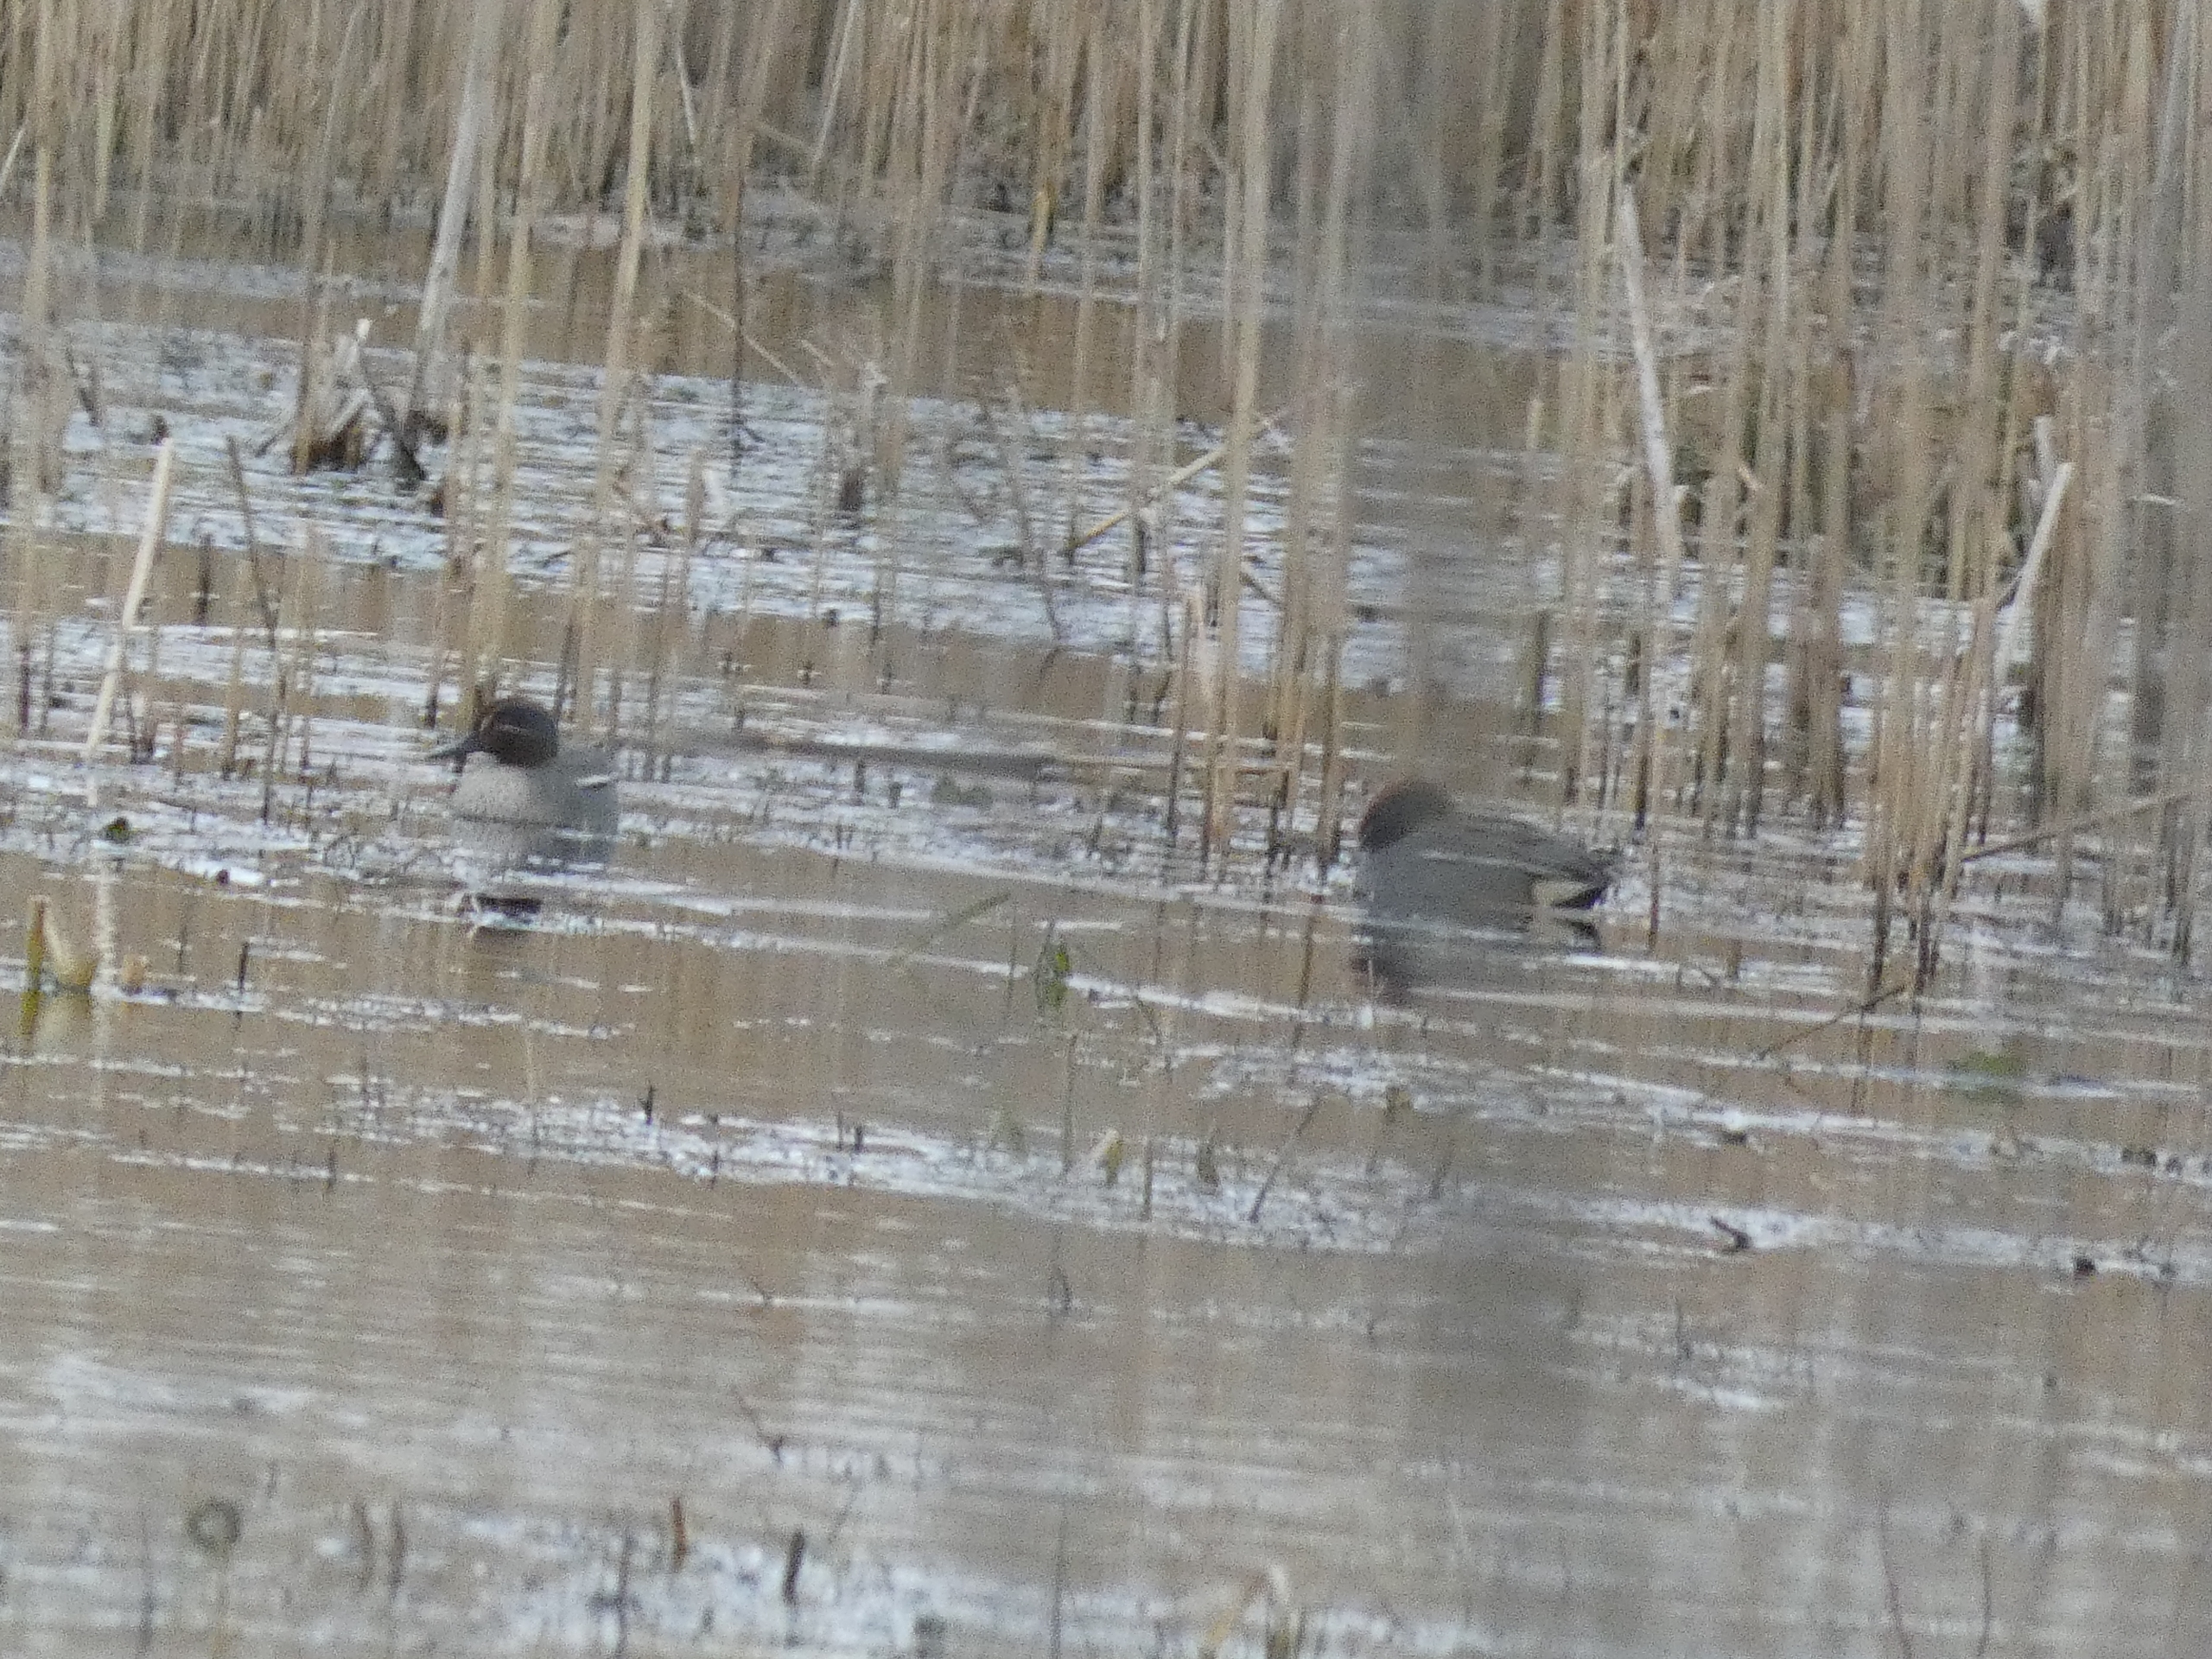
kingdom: Animalia
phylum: Chordata
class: Aves
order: Anseriformes
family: Anatidae
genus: Anas
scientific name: Anas crecca
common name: Krikand
